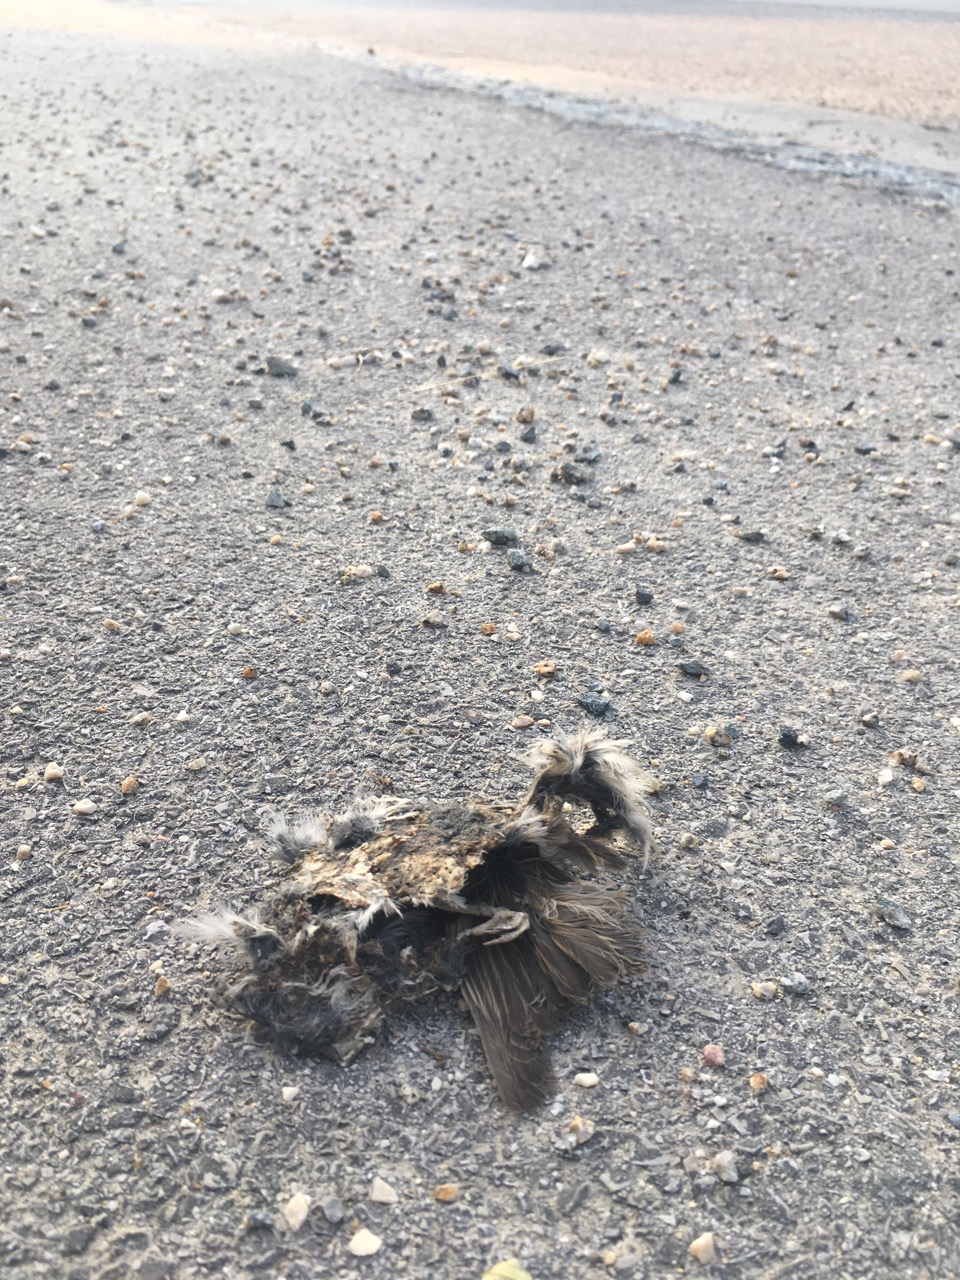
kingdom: Animalia
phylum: Chordata
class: Aves
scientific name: Aves
